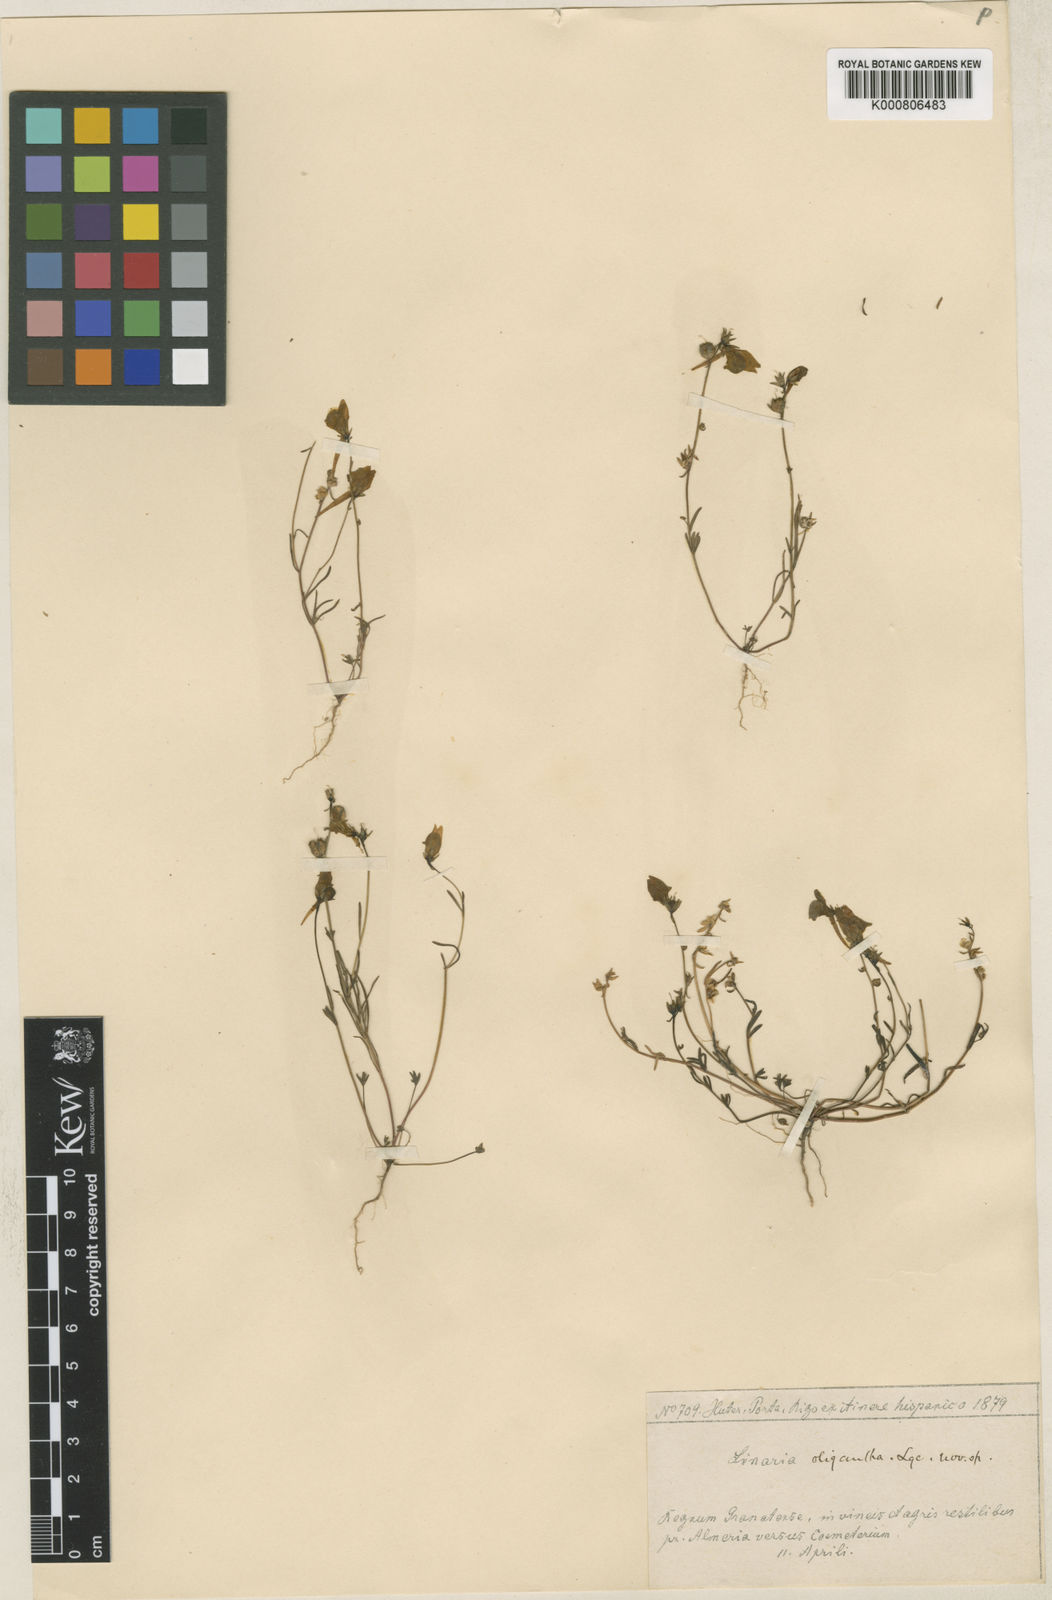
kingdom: Plantae
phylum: Tracheophyta
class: Magnoliopsida
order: Lamiales
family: Plantaginaceae
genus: Linaria
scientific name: Linaria oligantha
